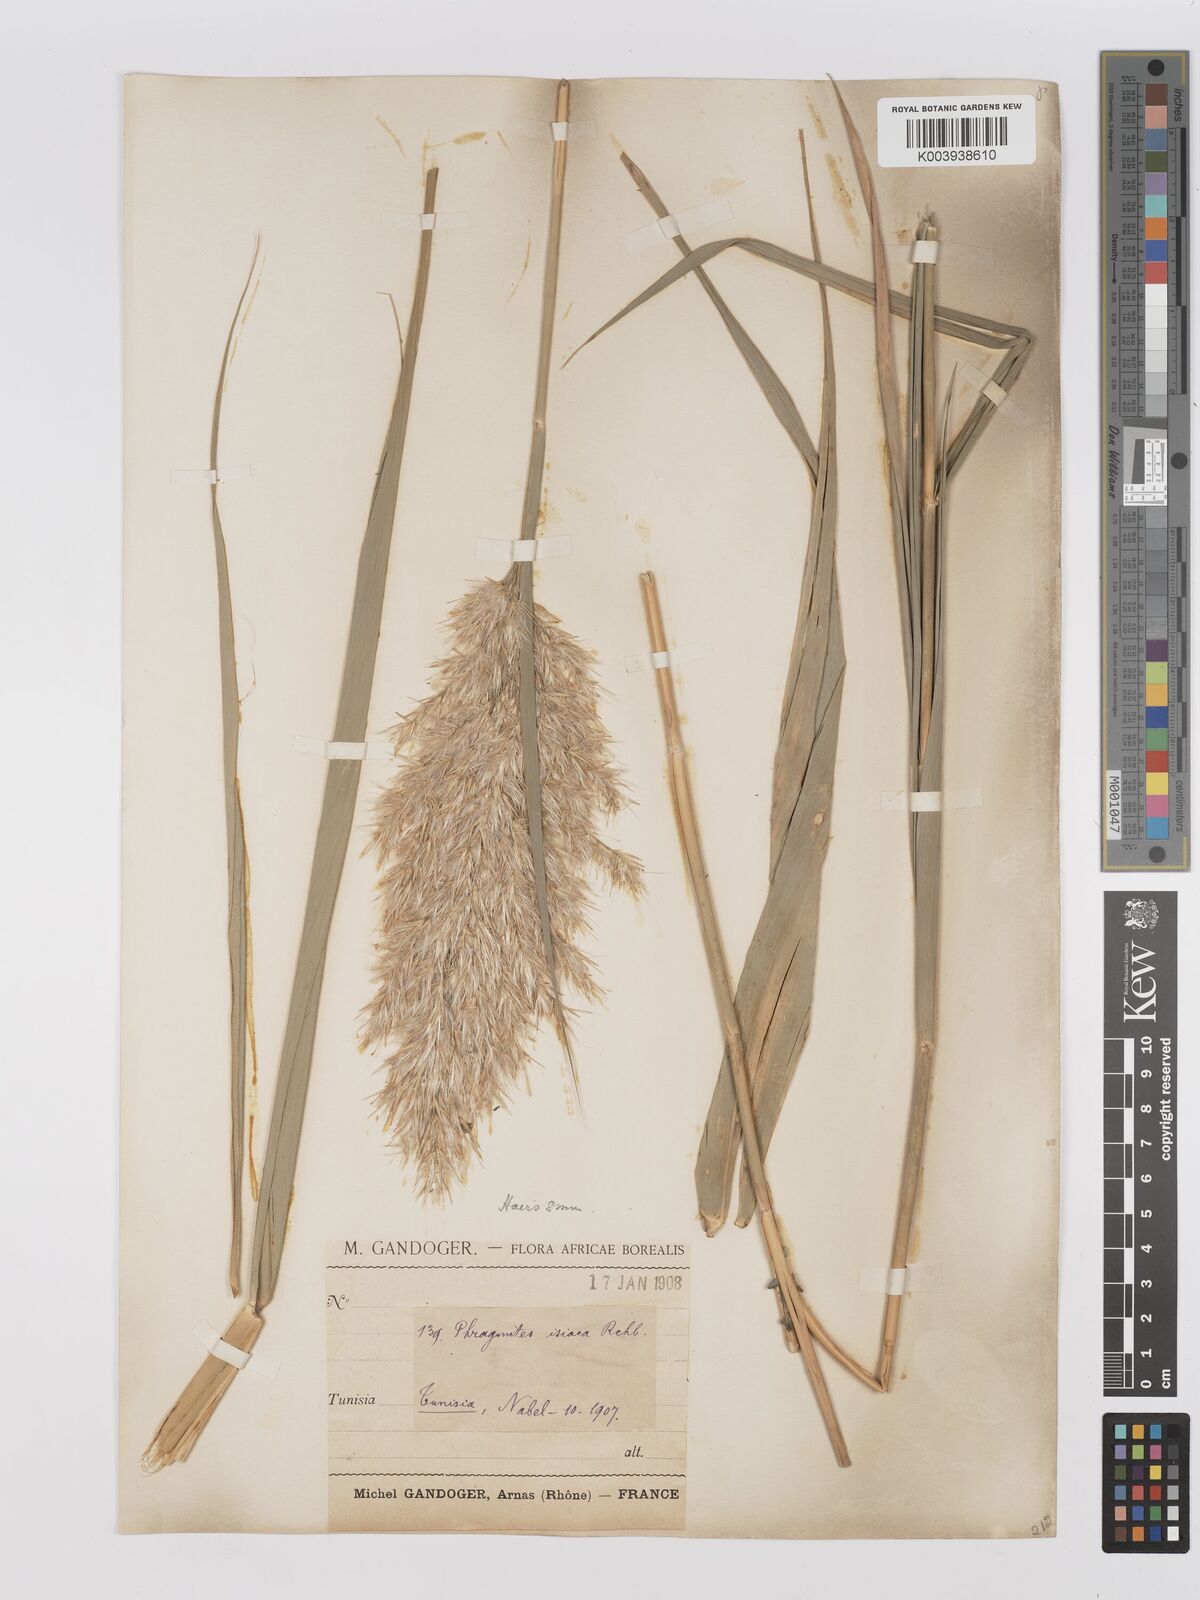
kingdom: Plantae
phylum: Tracheophyta
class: Liliopsida
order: Poales
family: Poaceae
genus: Phragmites
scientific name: Phragmites australis
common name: Common reed
